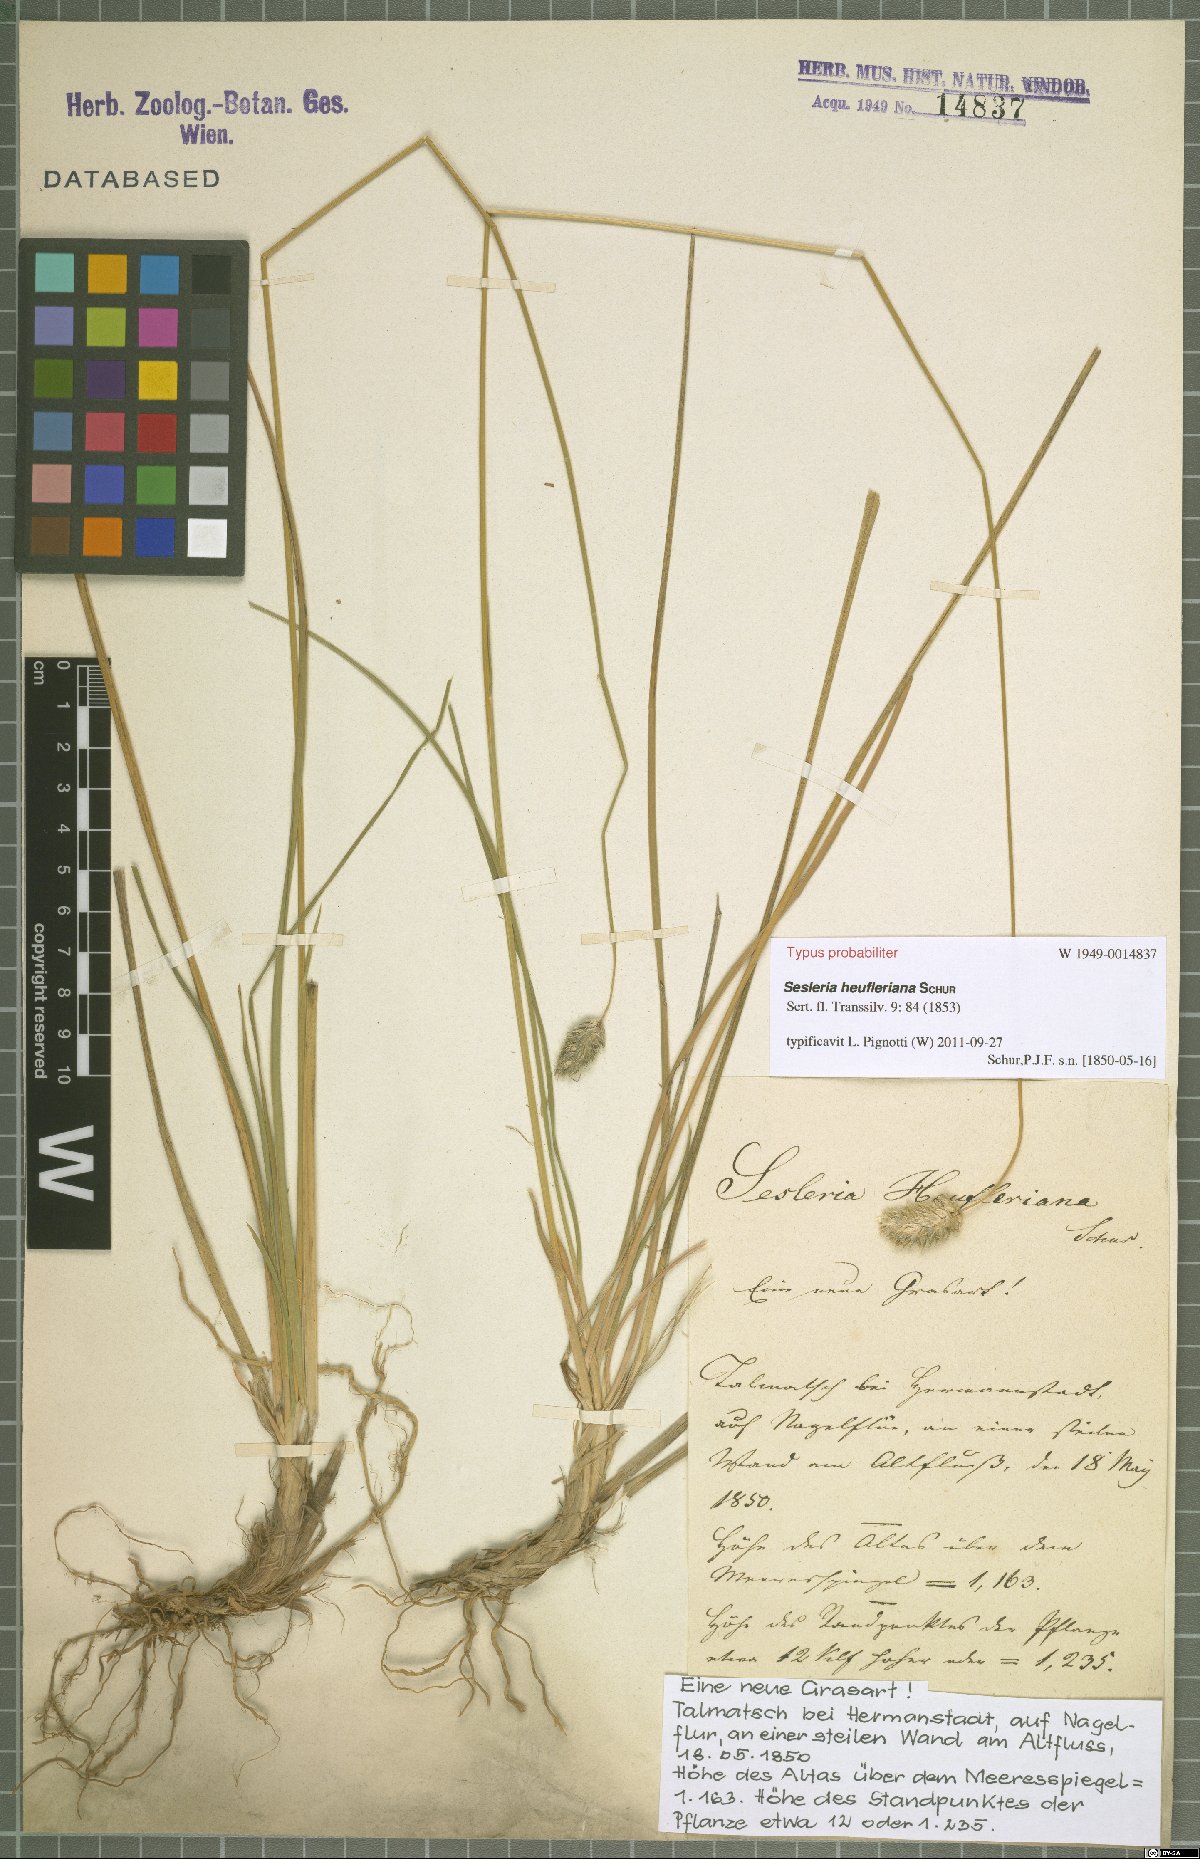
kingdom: Plantae
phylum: Tracheophyta
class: Liliopsida
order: Poales
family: Poaceae
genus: Sesleria
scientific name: Sesleria heufleriana
